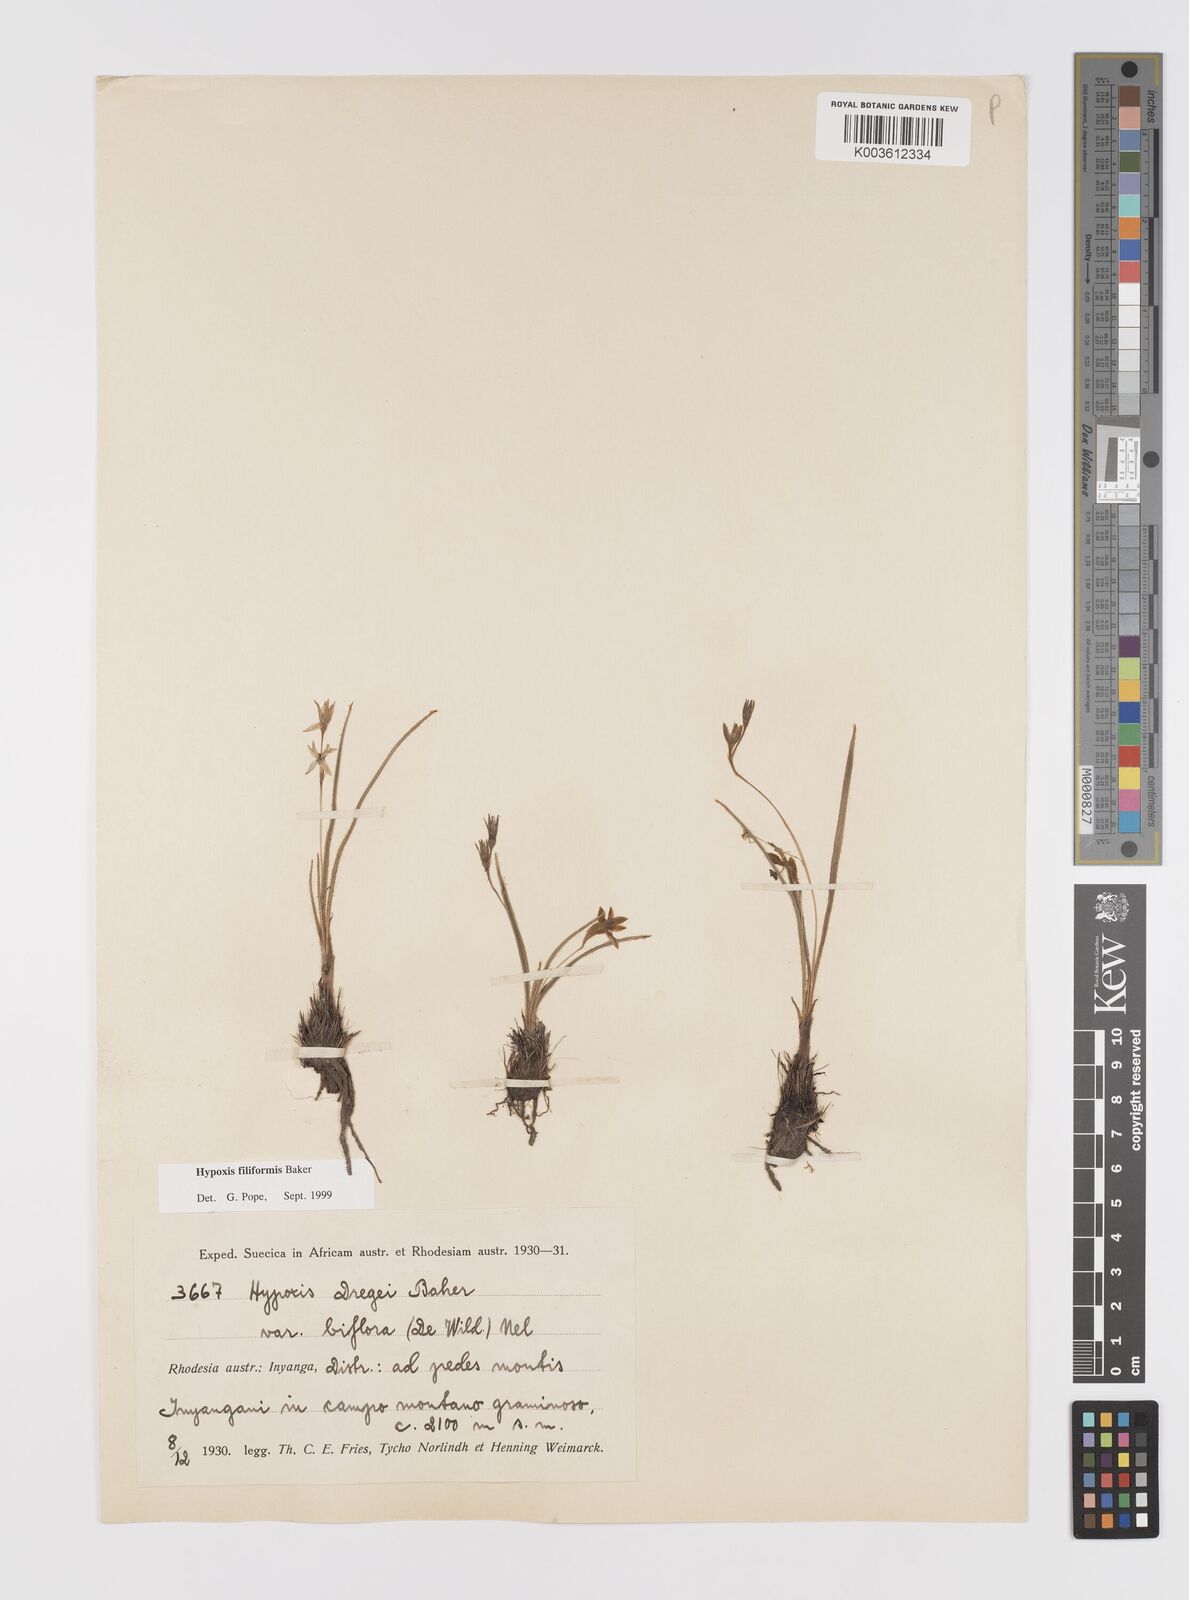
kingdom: Plantae
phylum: Tracheophyta
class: Liliopsida
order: Asparagales
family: Hypoxidaceae
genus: Hypoxis
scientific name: Hypoxis filiformis
